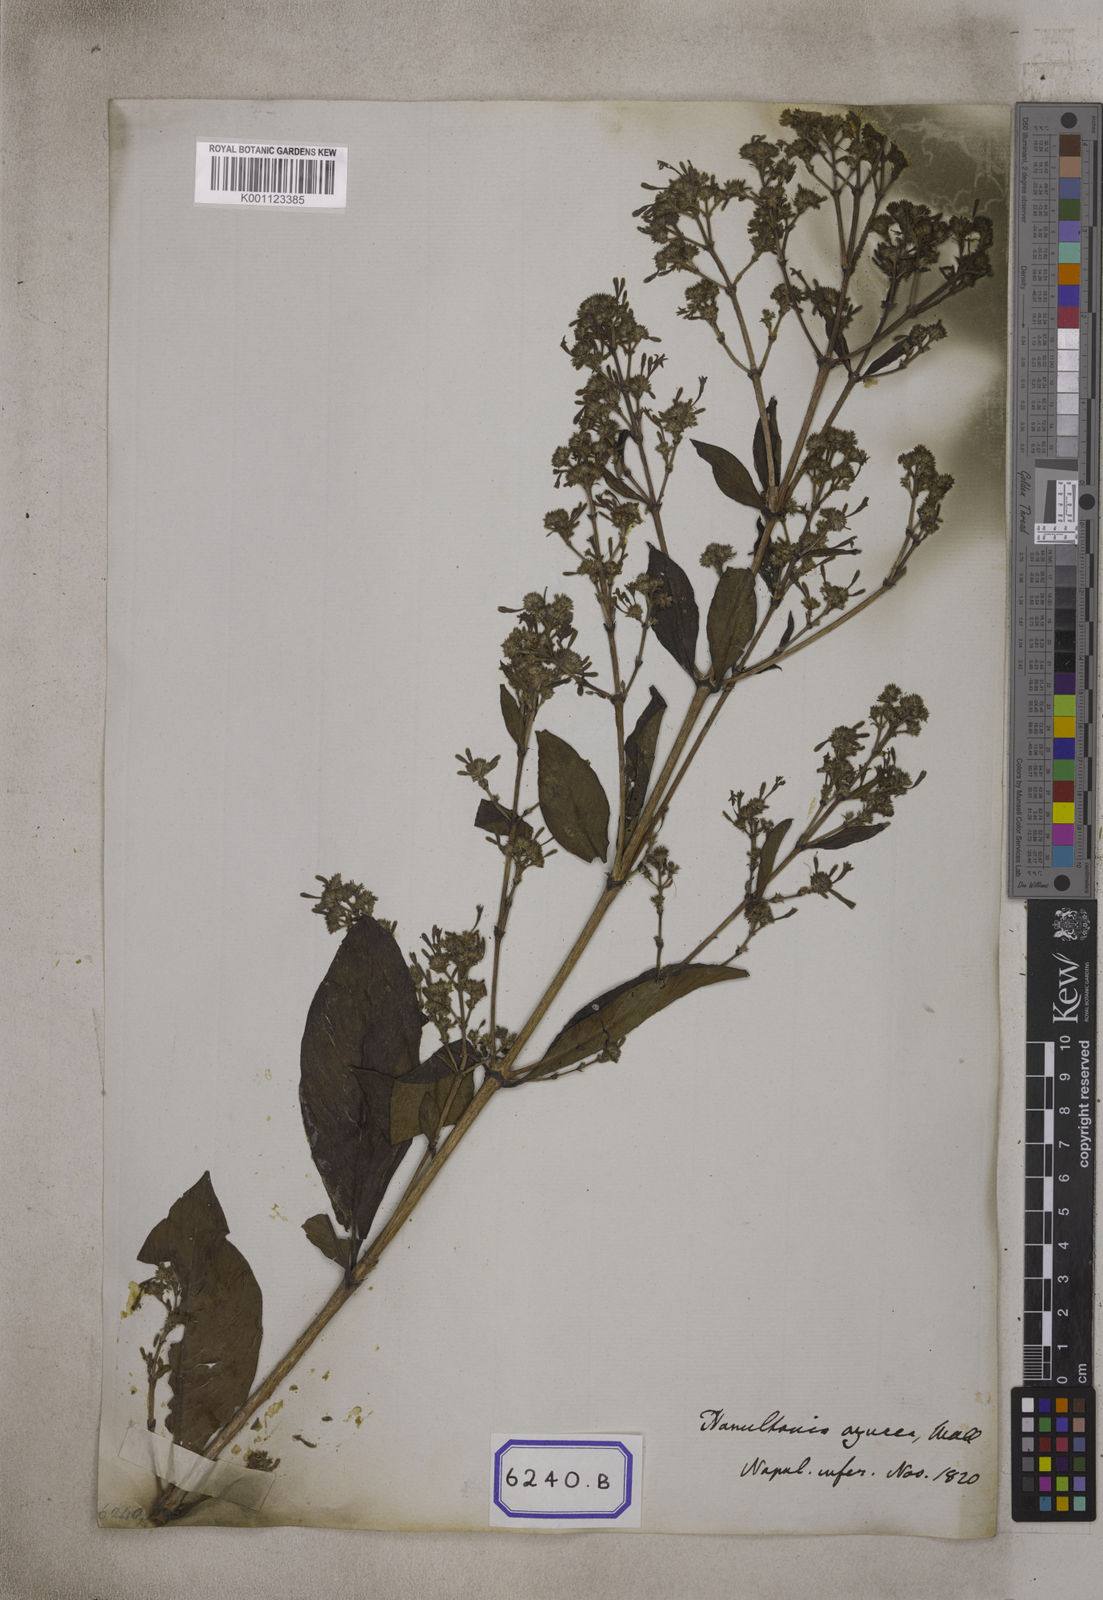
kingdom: Plantae
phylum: Tracheophyta
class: Magnoliopsida
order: Gentianales
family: Rubiaceae
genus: Spermadictyon
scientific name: Spermadictyon suaveolens
